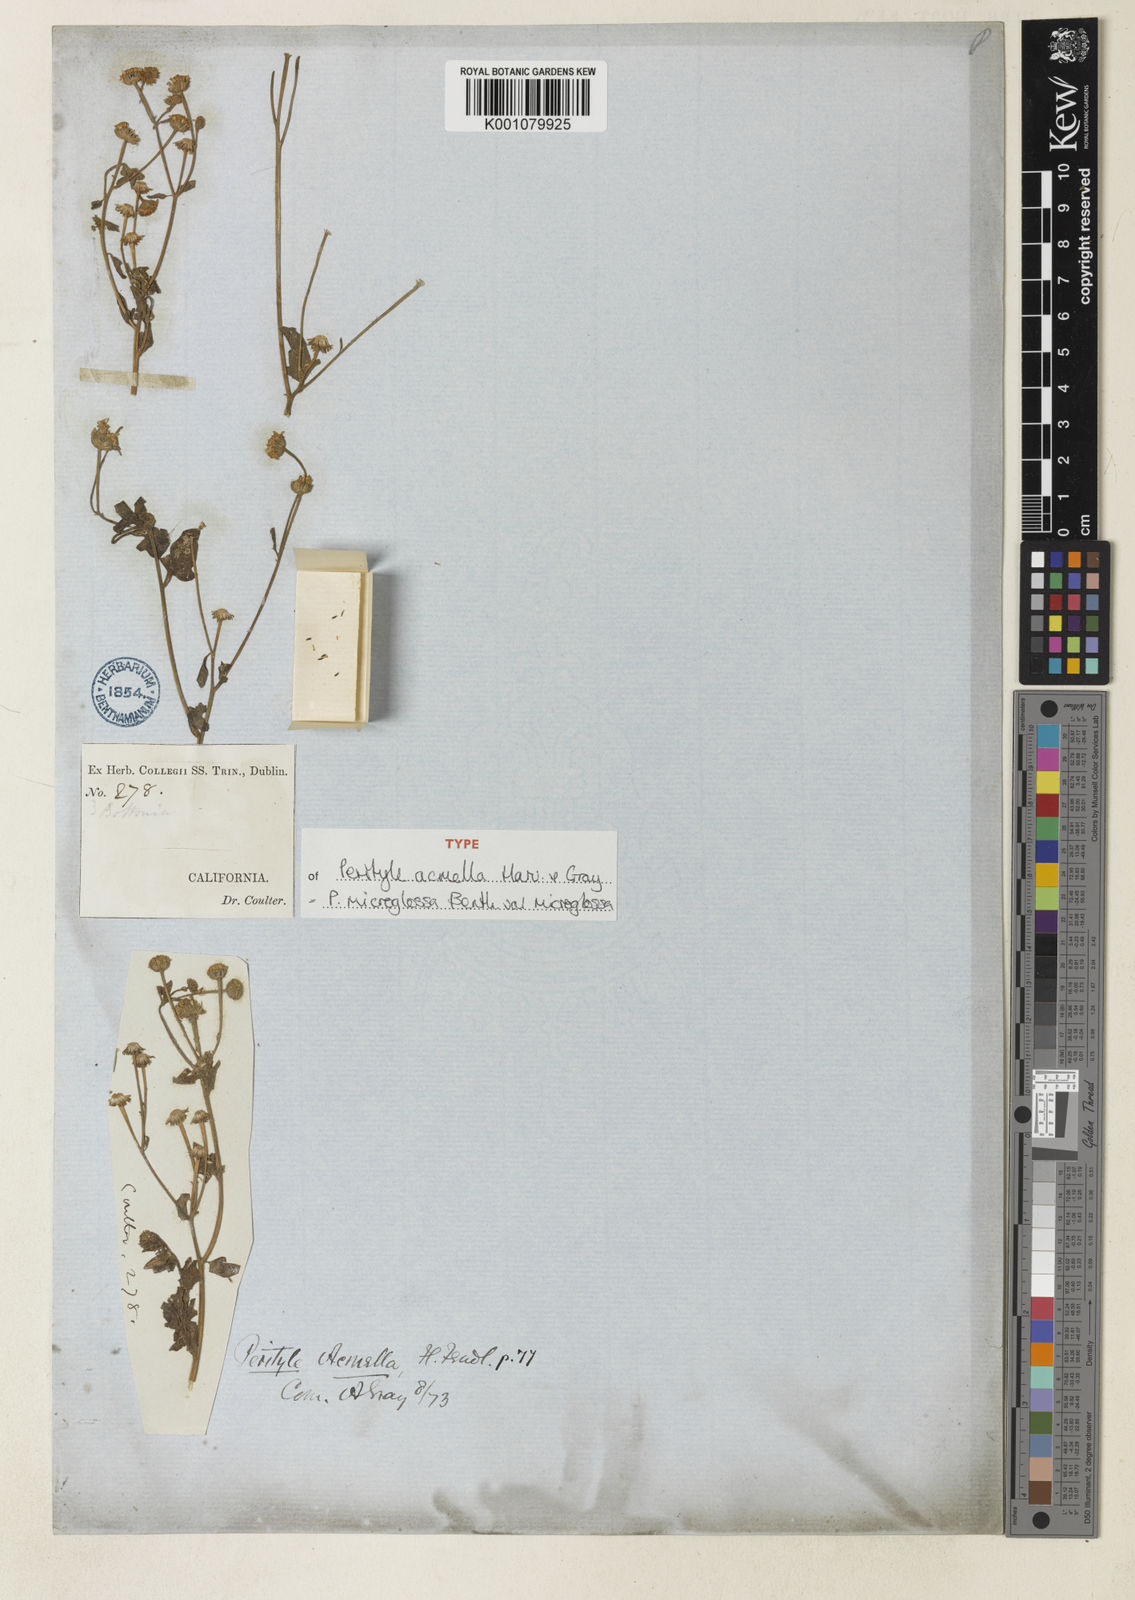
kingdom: Plantae
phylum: Tracheophyta
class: Magnoliopsida
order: Asterales
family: Asteraceae
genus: Galinsogeopsis
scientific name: Galinsogeopsis spilanthoides
